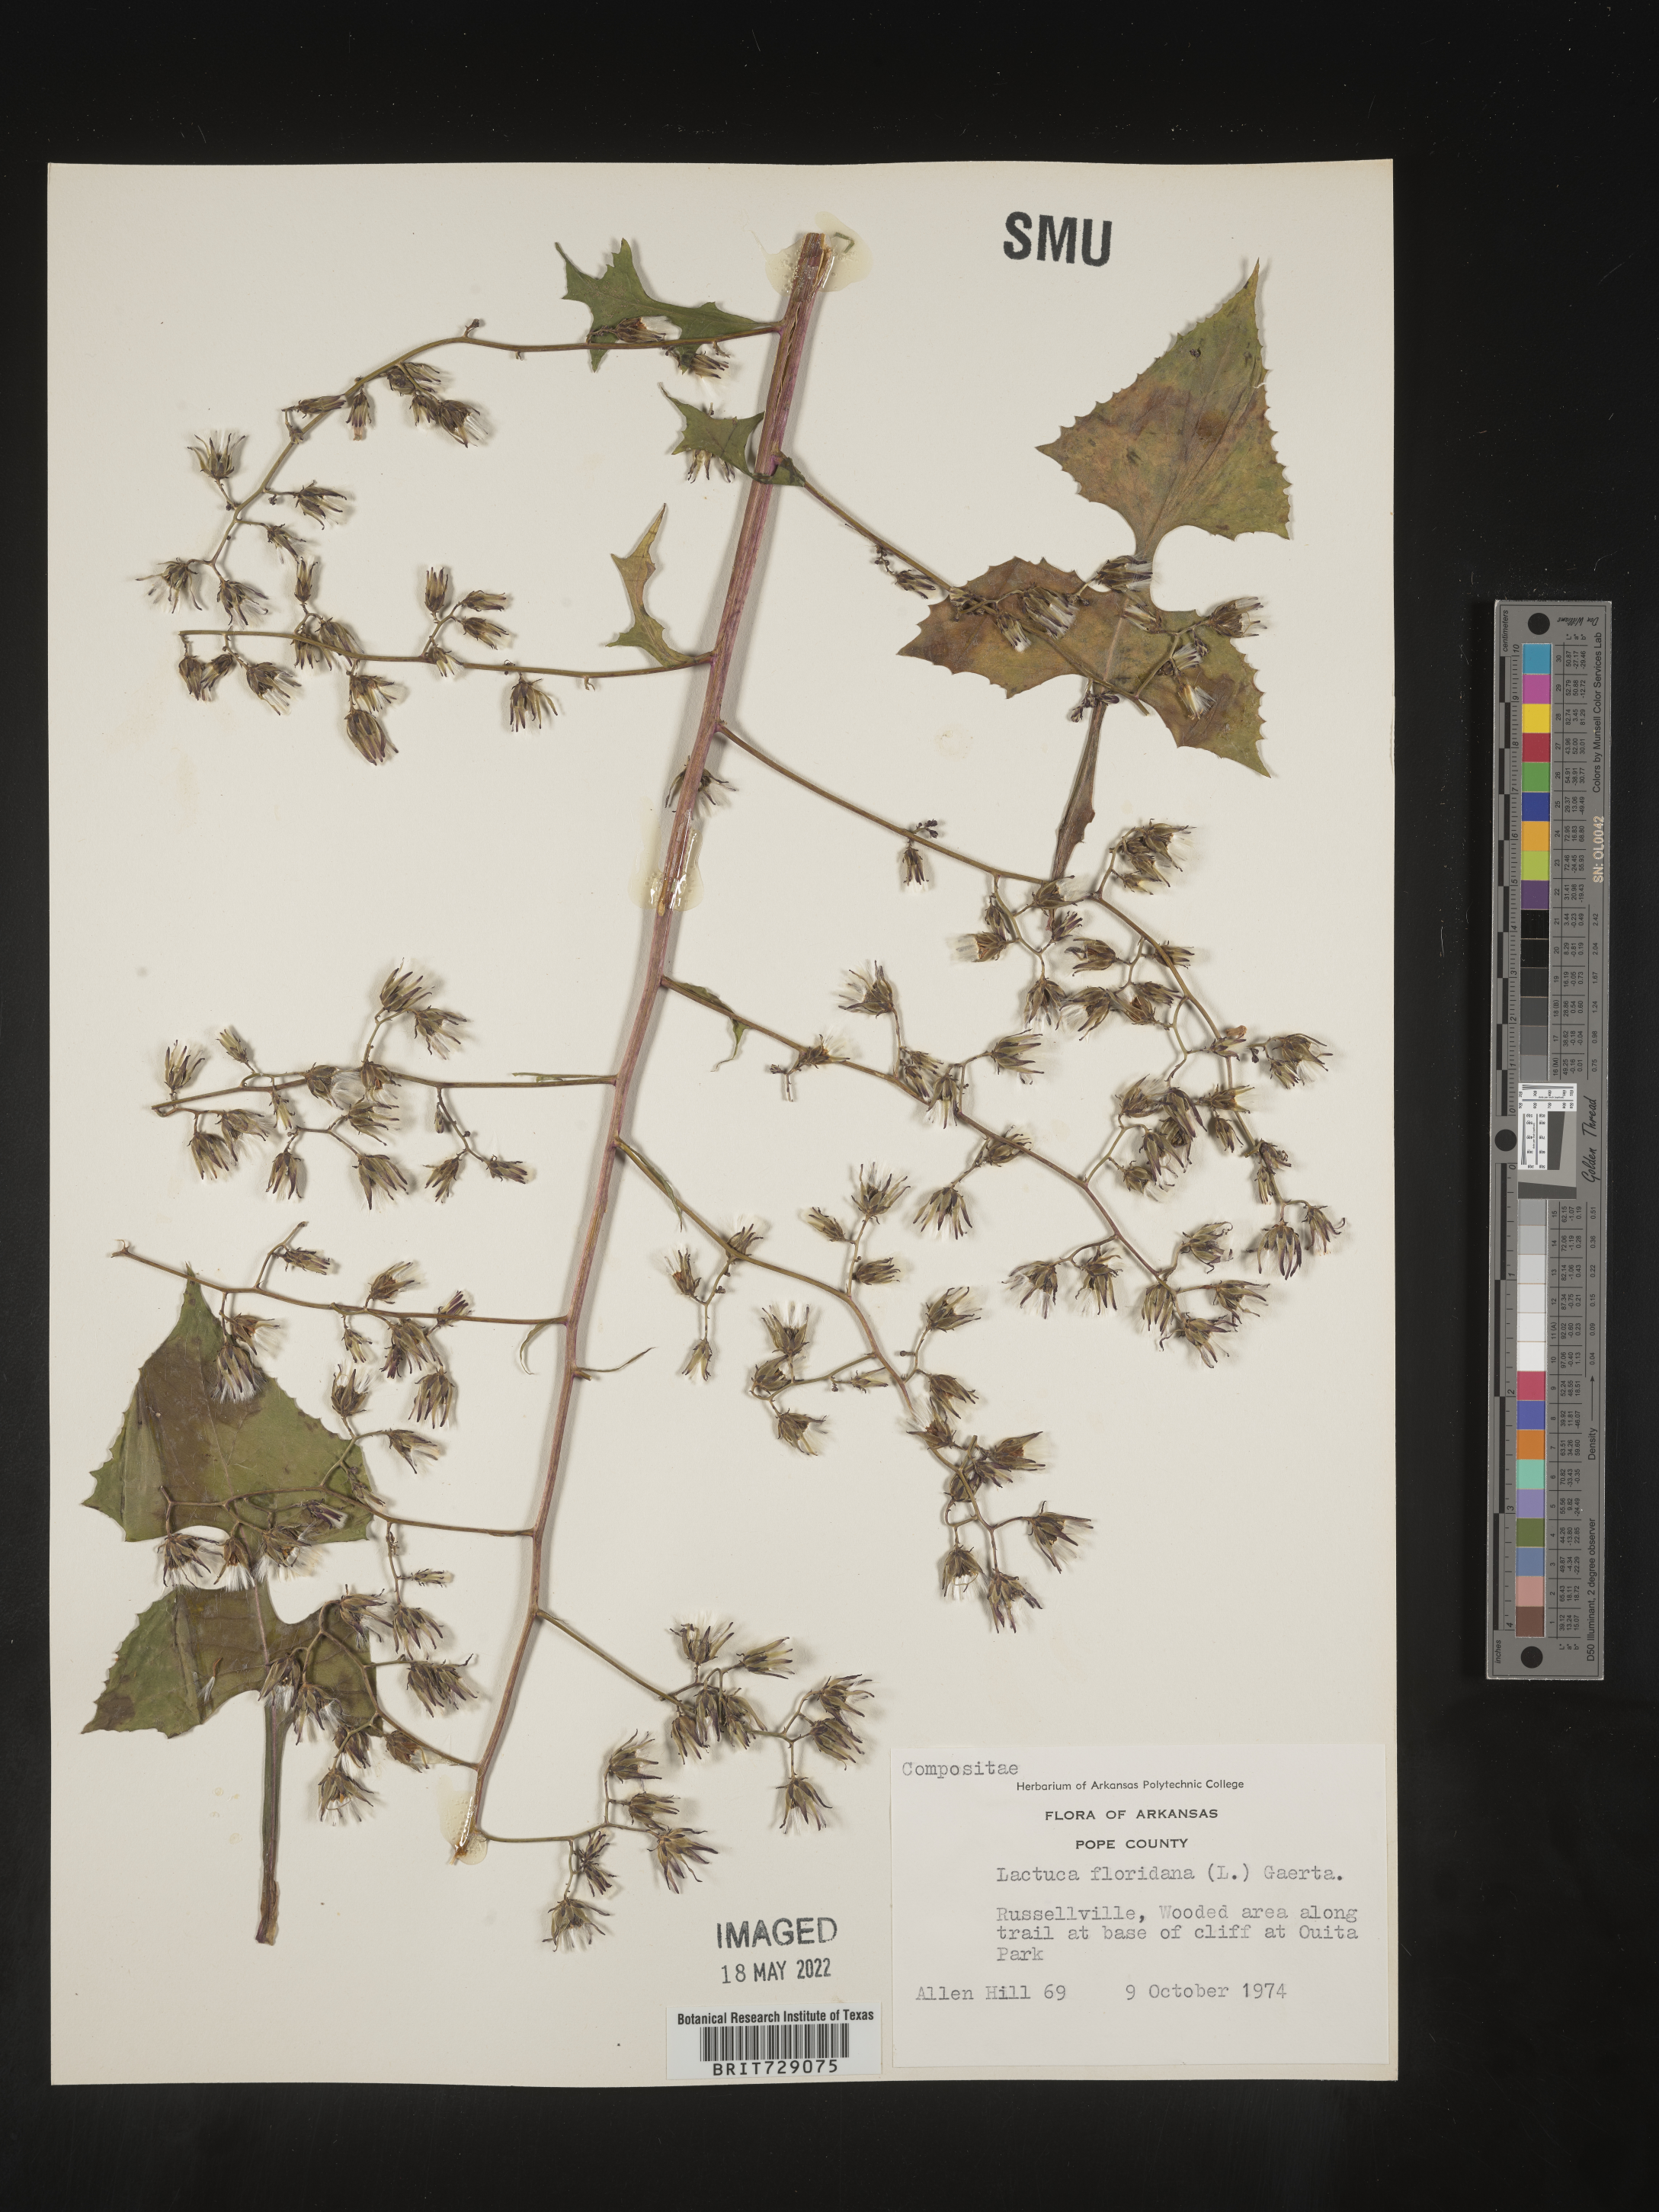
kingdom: Plantae
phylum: Tracheophyta
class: Magnoliopsida
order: Asterales
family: Asteraceae
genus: Lactuca
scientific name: Lactuca floridana
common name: Woodland lettuce
